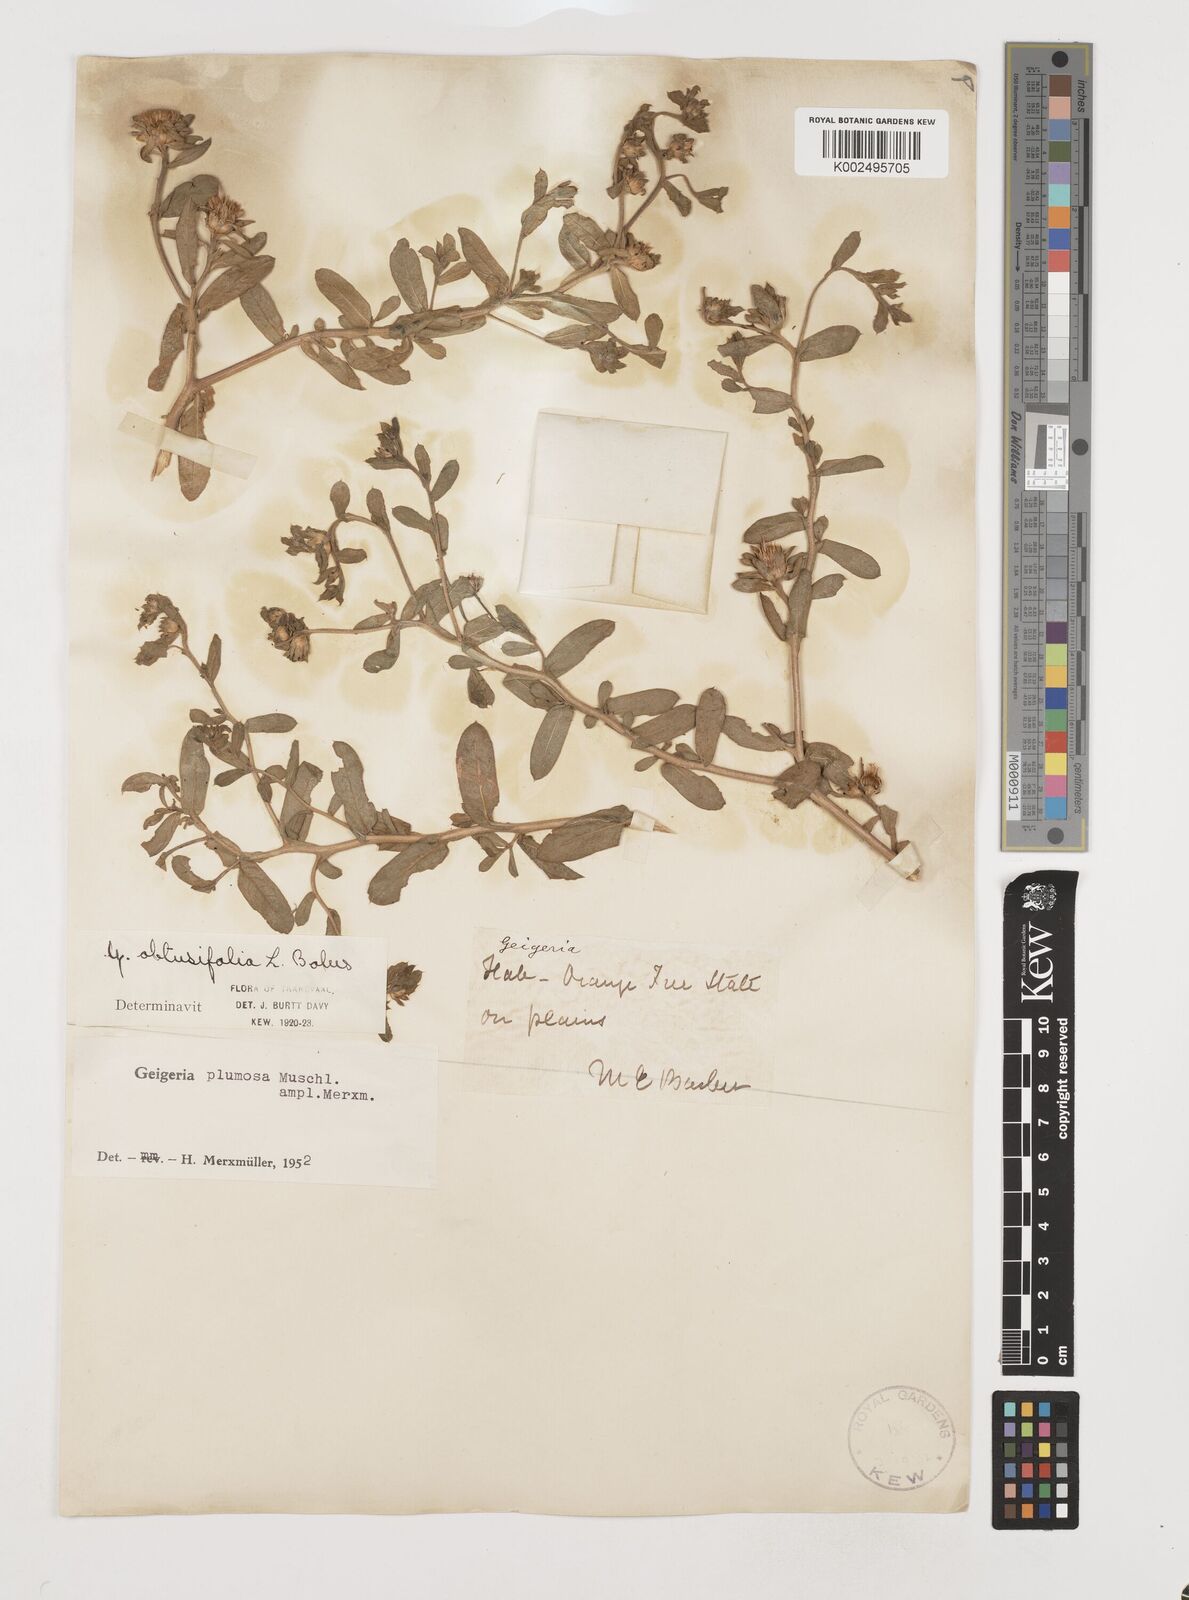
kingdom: Plantae
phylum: Tracheophyta
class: Magnoliopsida
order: Asterales
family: Asteraceae
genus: Geigeria
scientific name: Geigeria plumosa
